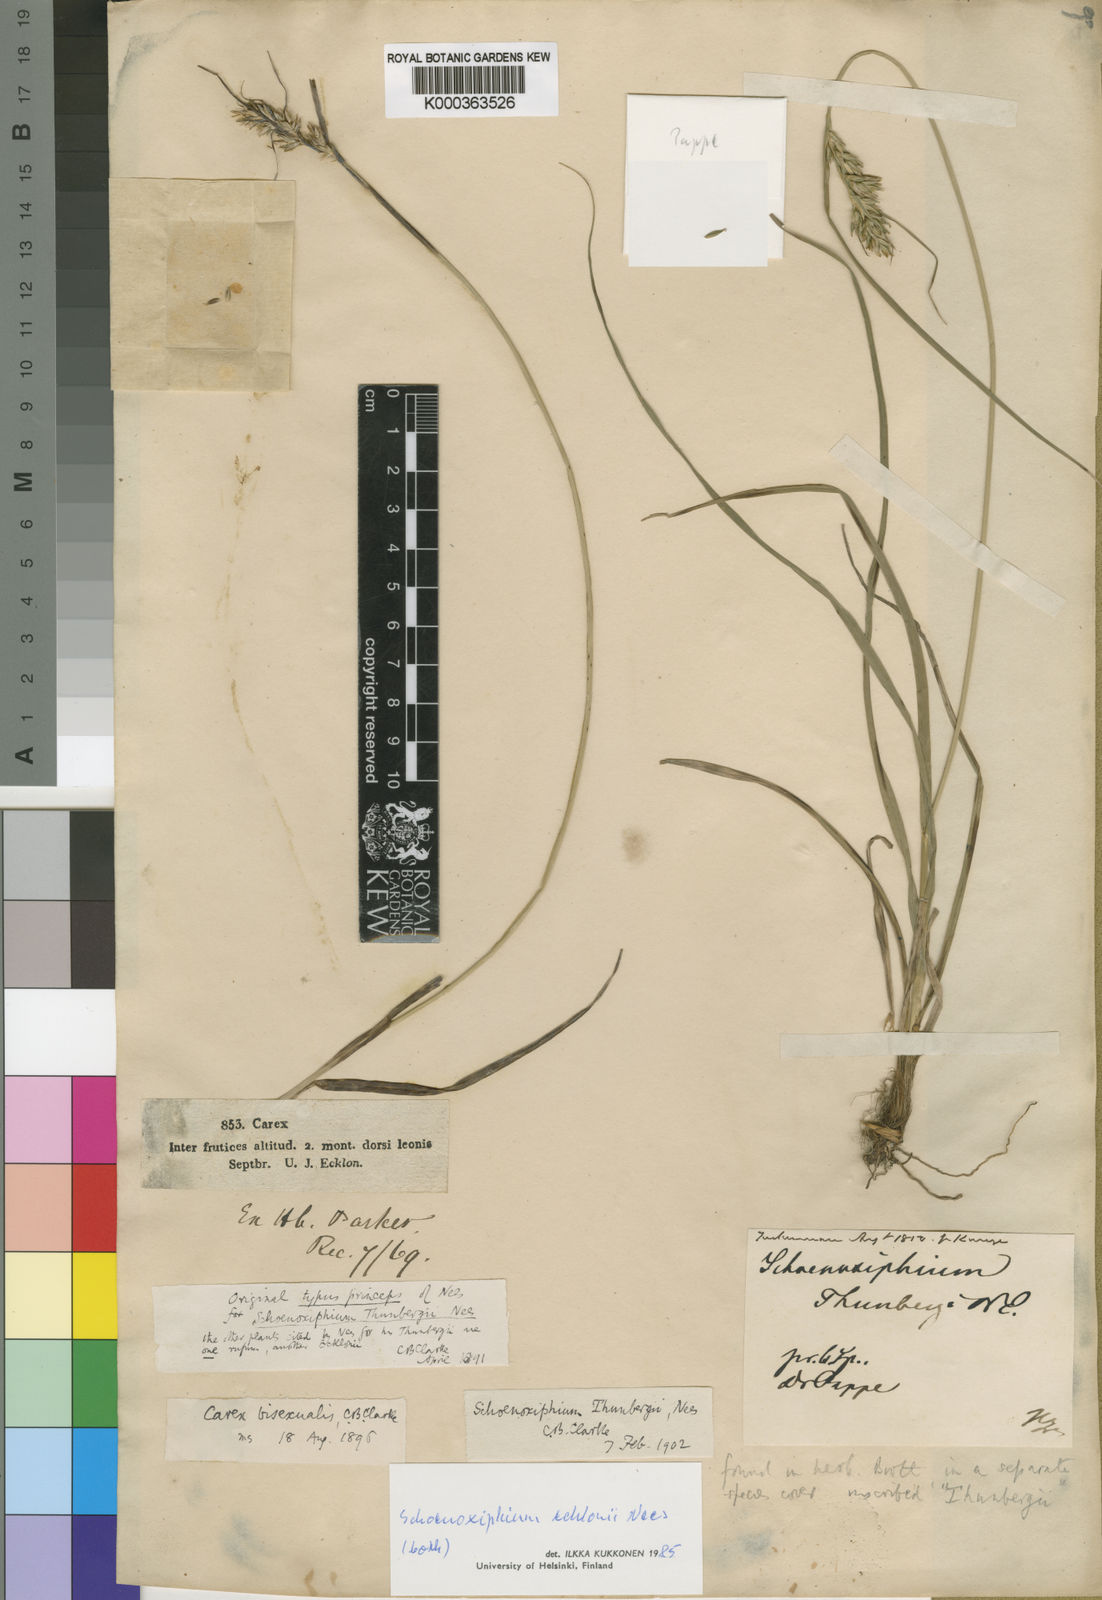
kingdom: Plantae
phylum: Tracheophyta
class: Liliopsida
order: Poales
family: Cyperaceae
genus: Carex
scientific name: Carex capensis
